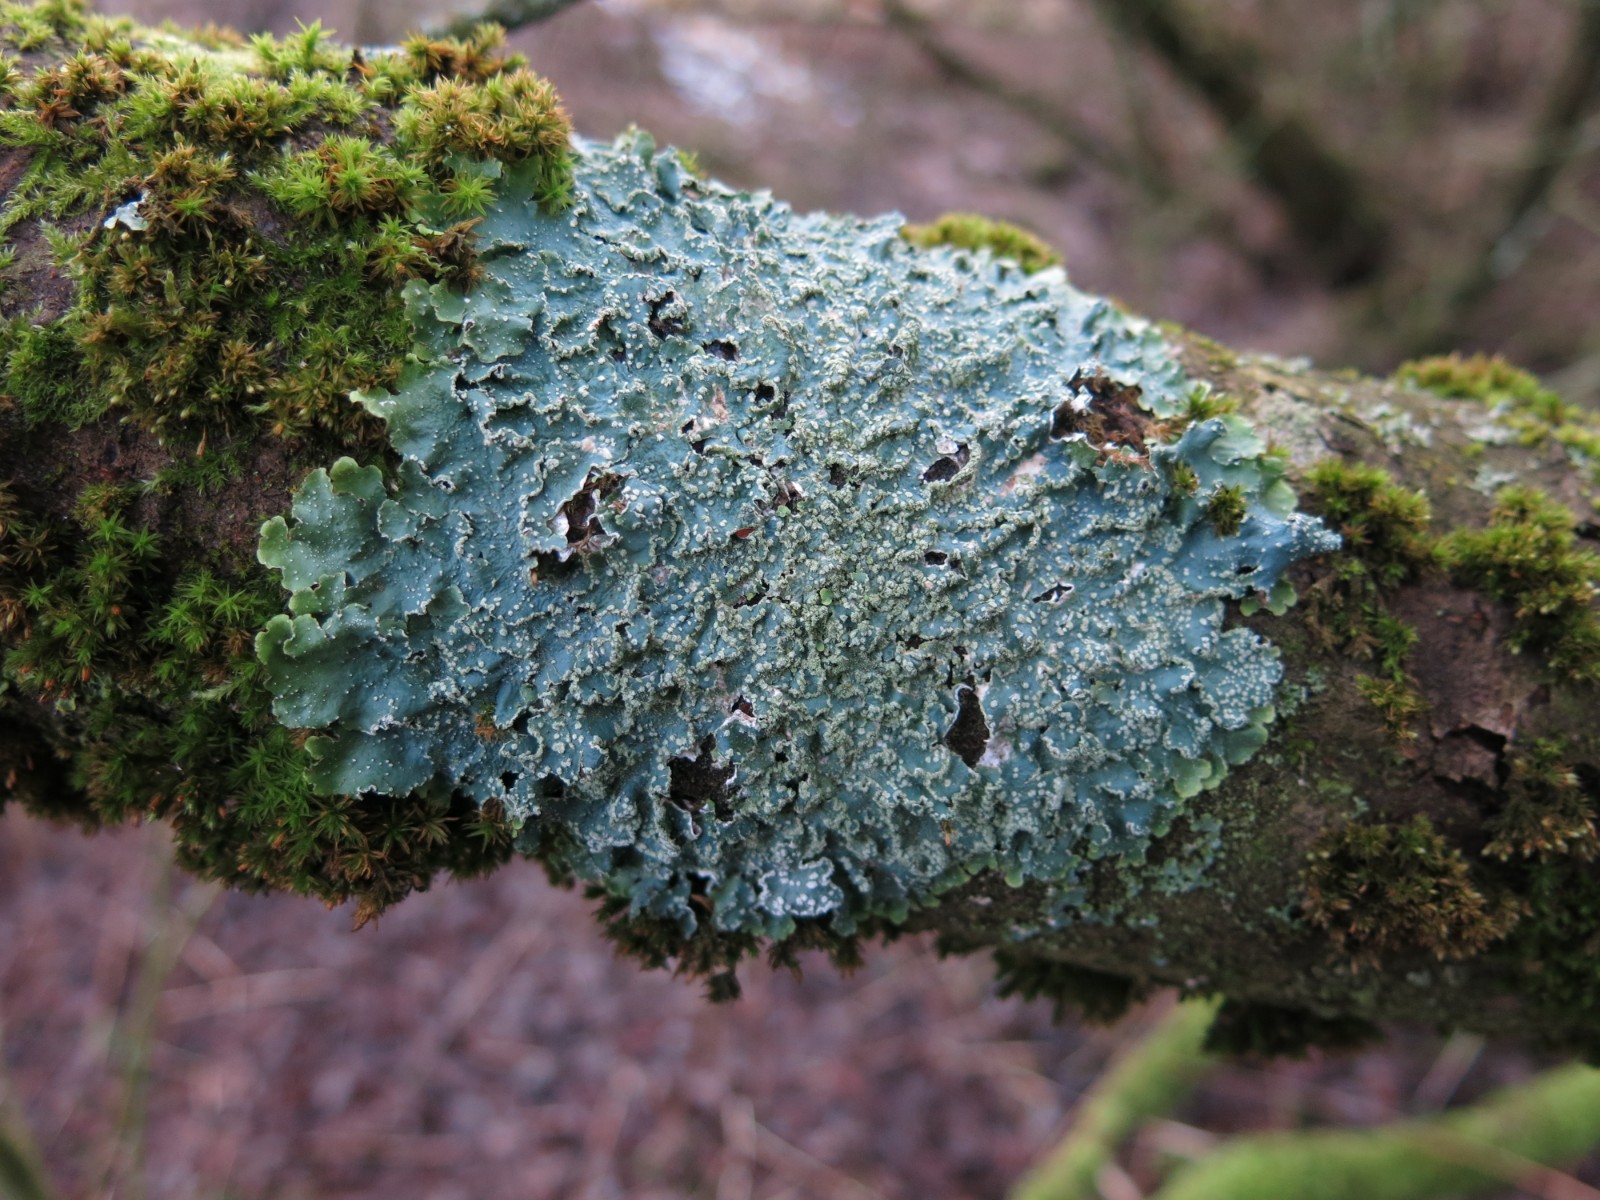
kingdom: Fungi
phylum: Ascomycota
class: Lecanoromycetes
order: Lecanorales
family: Parmeliaceae
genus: Punctelia
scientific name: Punctelia subrudecta
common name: punkt-skållav
